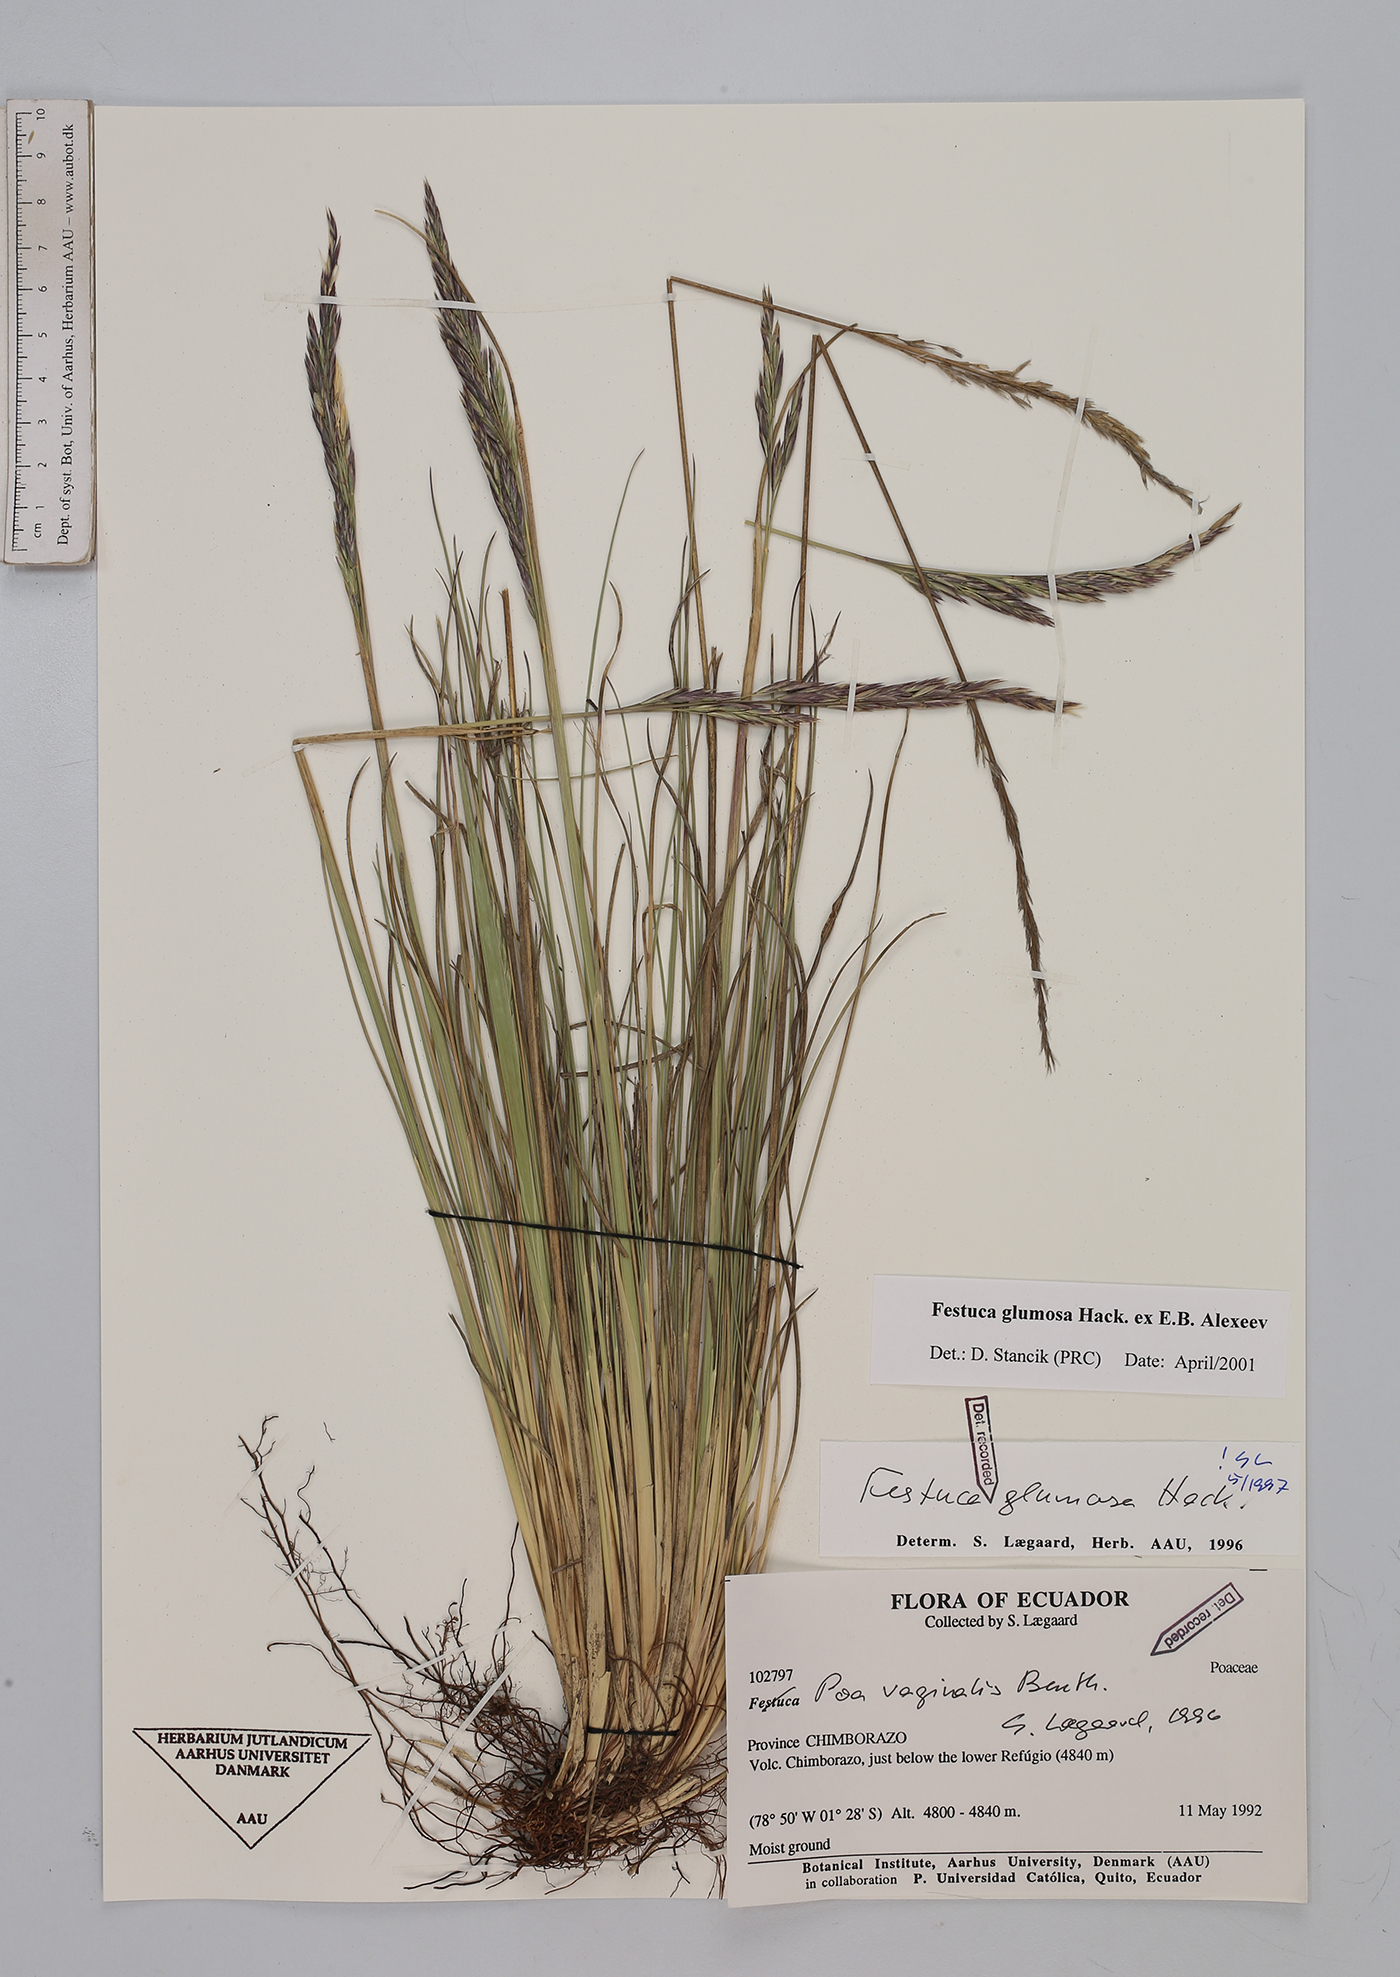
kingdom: Plantae
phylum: Tracheophyta
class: Liliopsida
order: Poales
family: Poaceae
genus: Festuca
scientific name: Festuca glumosa
